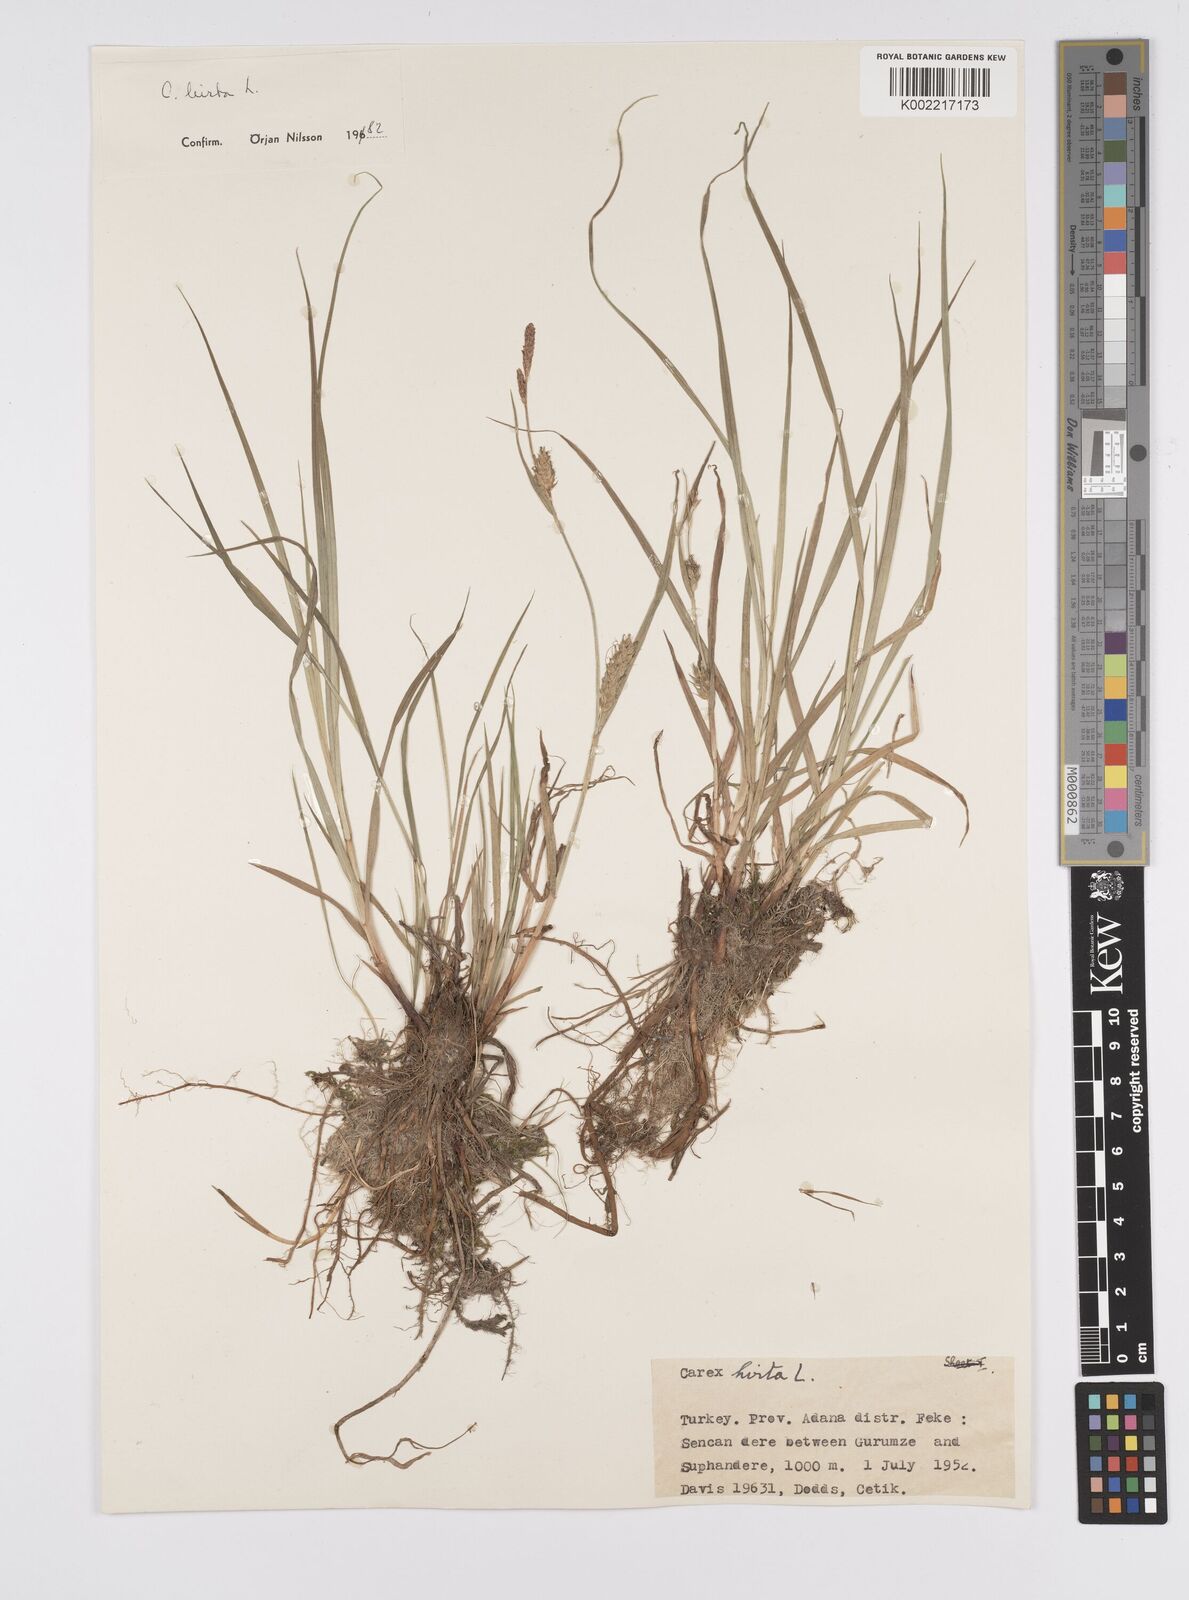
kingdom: Plantae
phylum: Tracheophyta
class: Liliopsida
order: Poales
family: Cyperaceae
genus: Carex
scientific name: Carex hirta
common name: Hairy sedge
